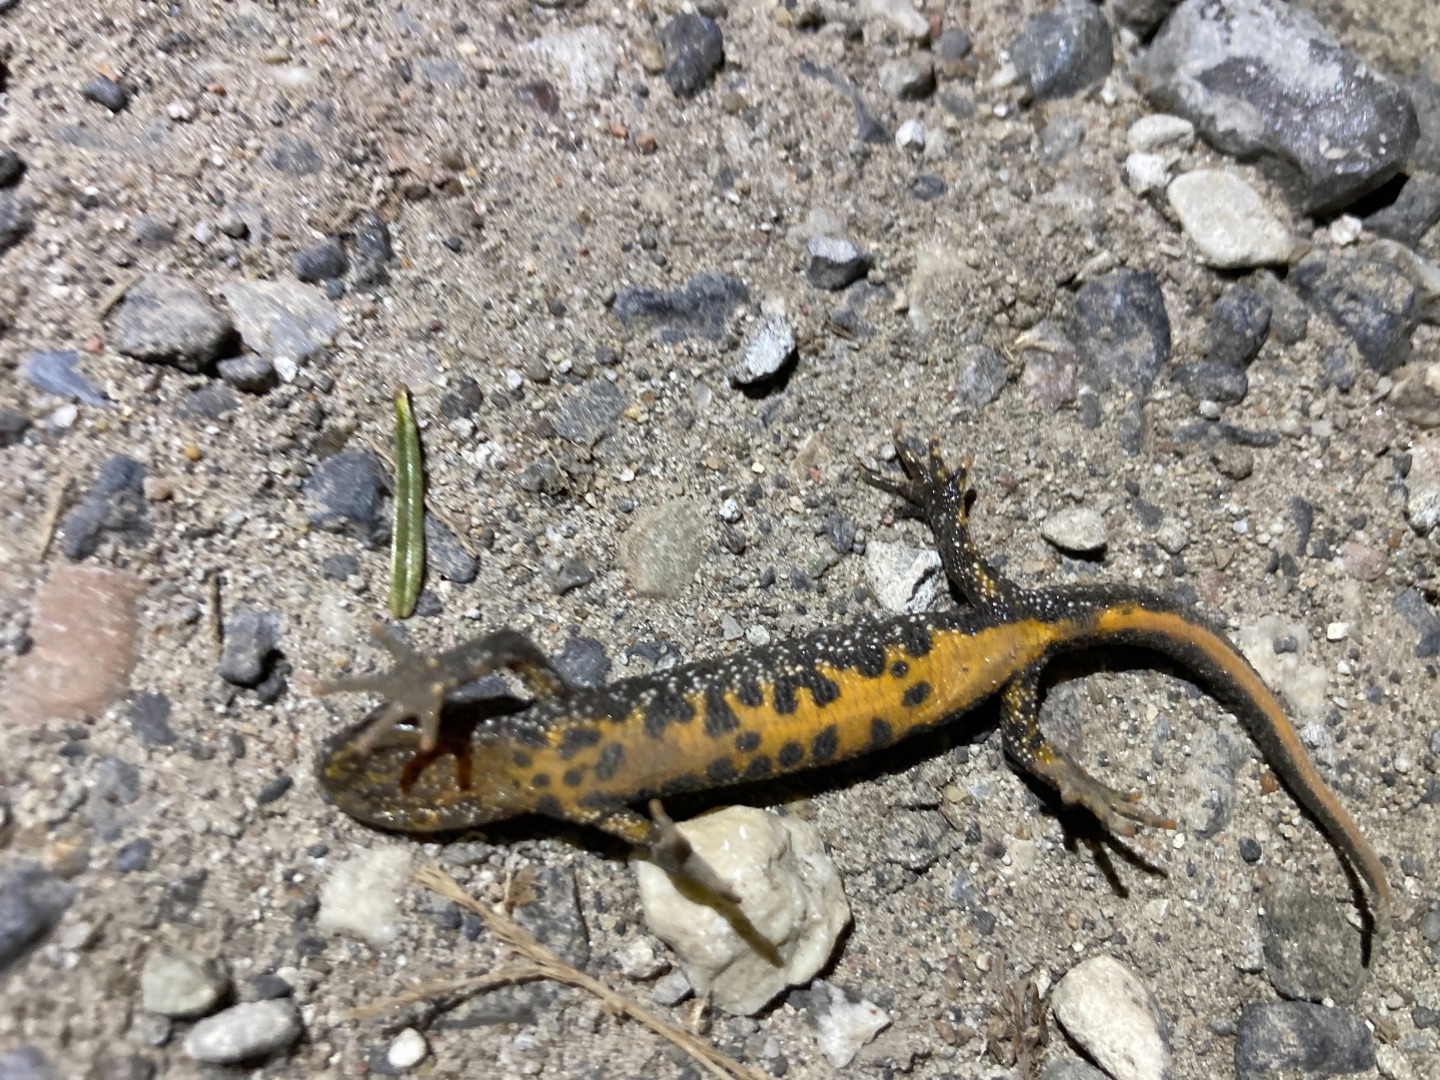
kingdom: Animalia
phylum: Chordata
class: Amphibia
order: Caudata
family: Salamandridae
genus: Triturus
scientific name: Triturus cristatus
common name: Stor vandsalamander
